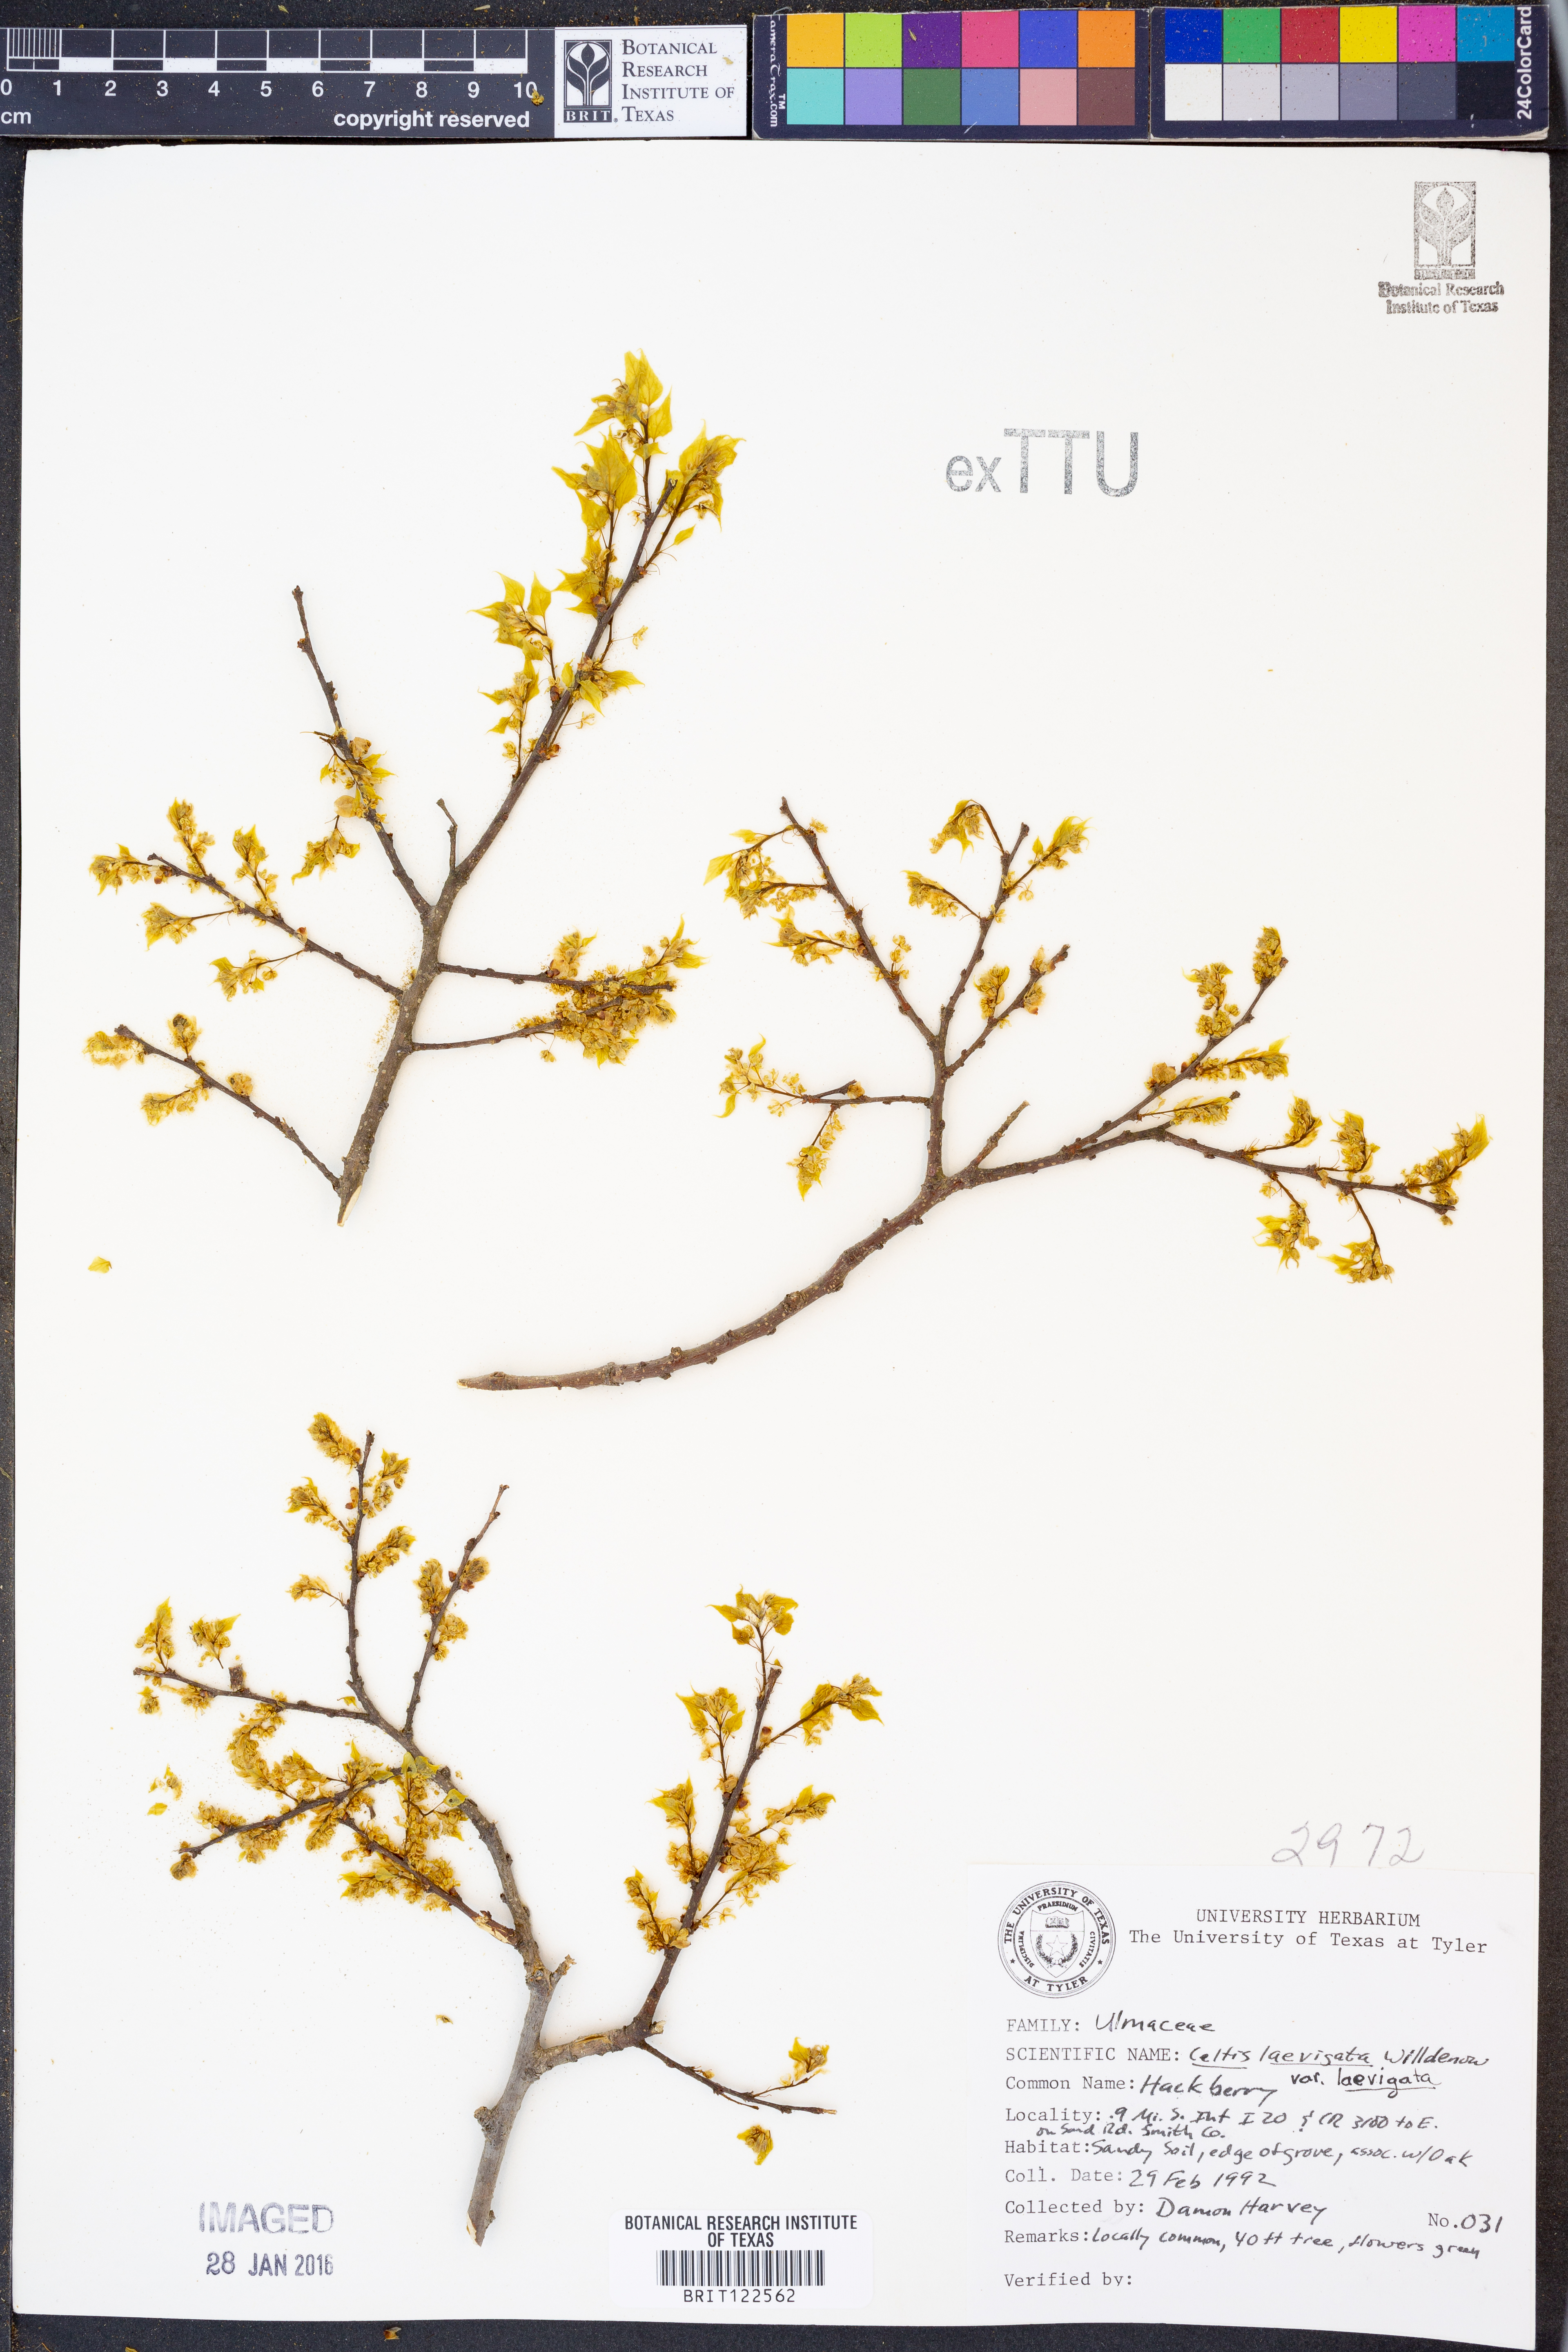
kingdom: Plantae
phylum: Tracheophyta
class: Magnoliopsida
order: Rosales
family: Cannabaceae
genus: Celtis
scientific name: Celtis laevigata
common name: Sugarberry
